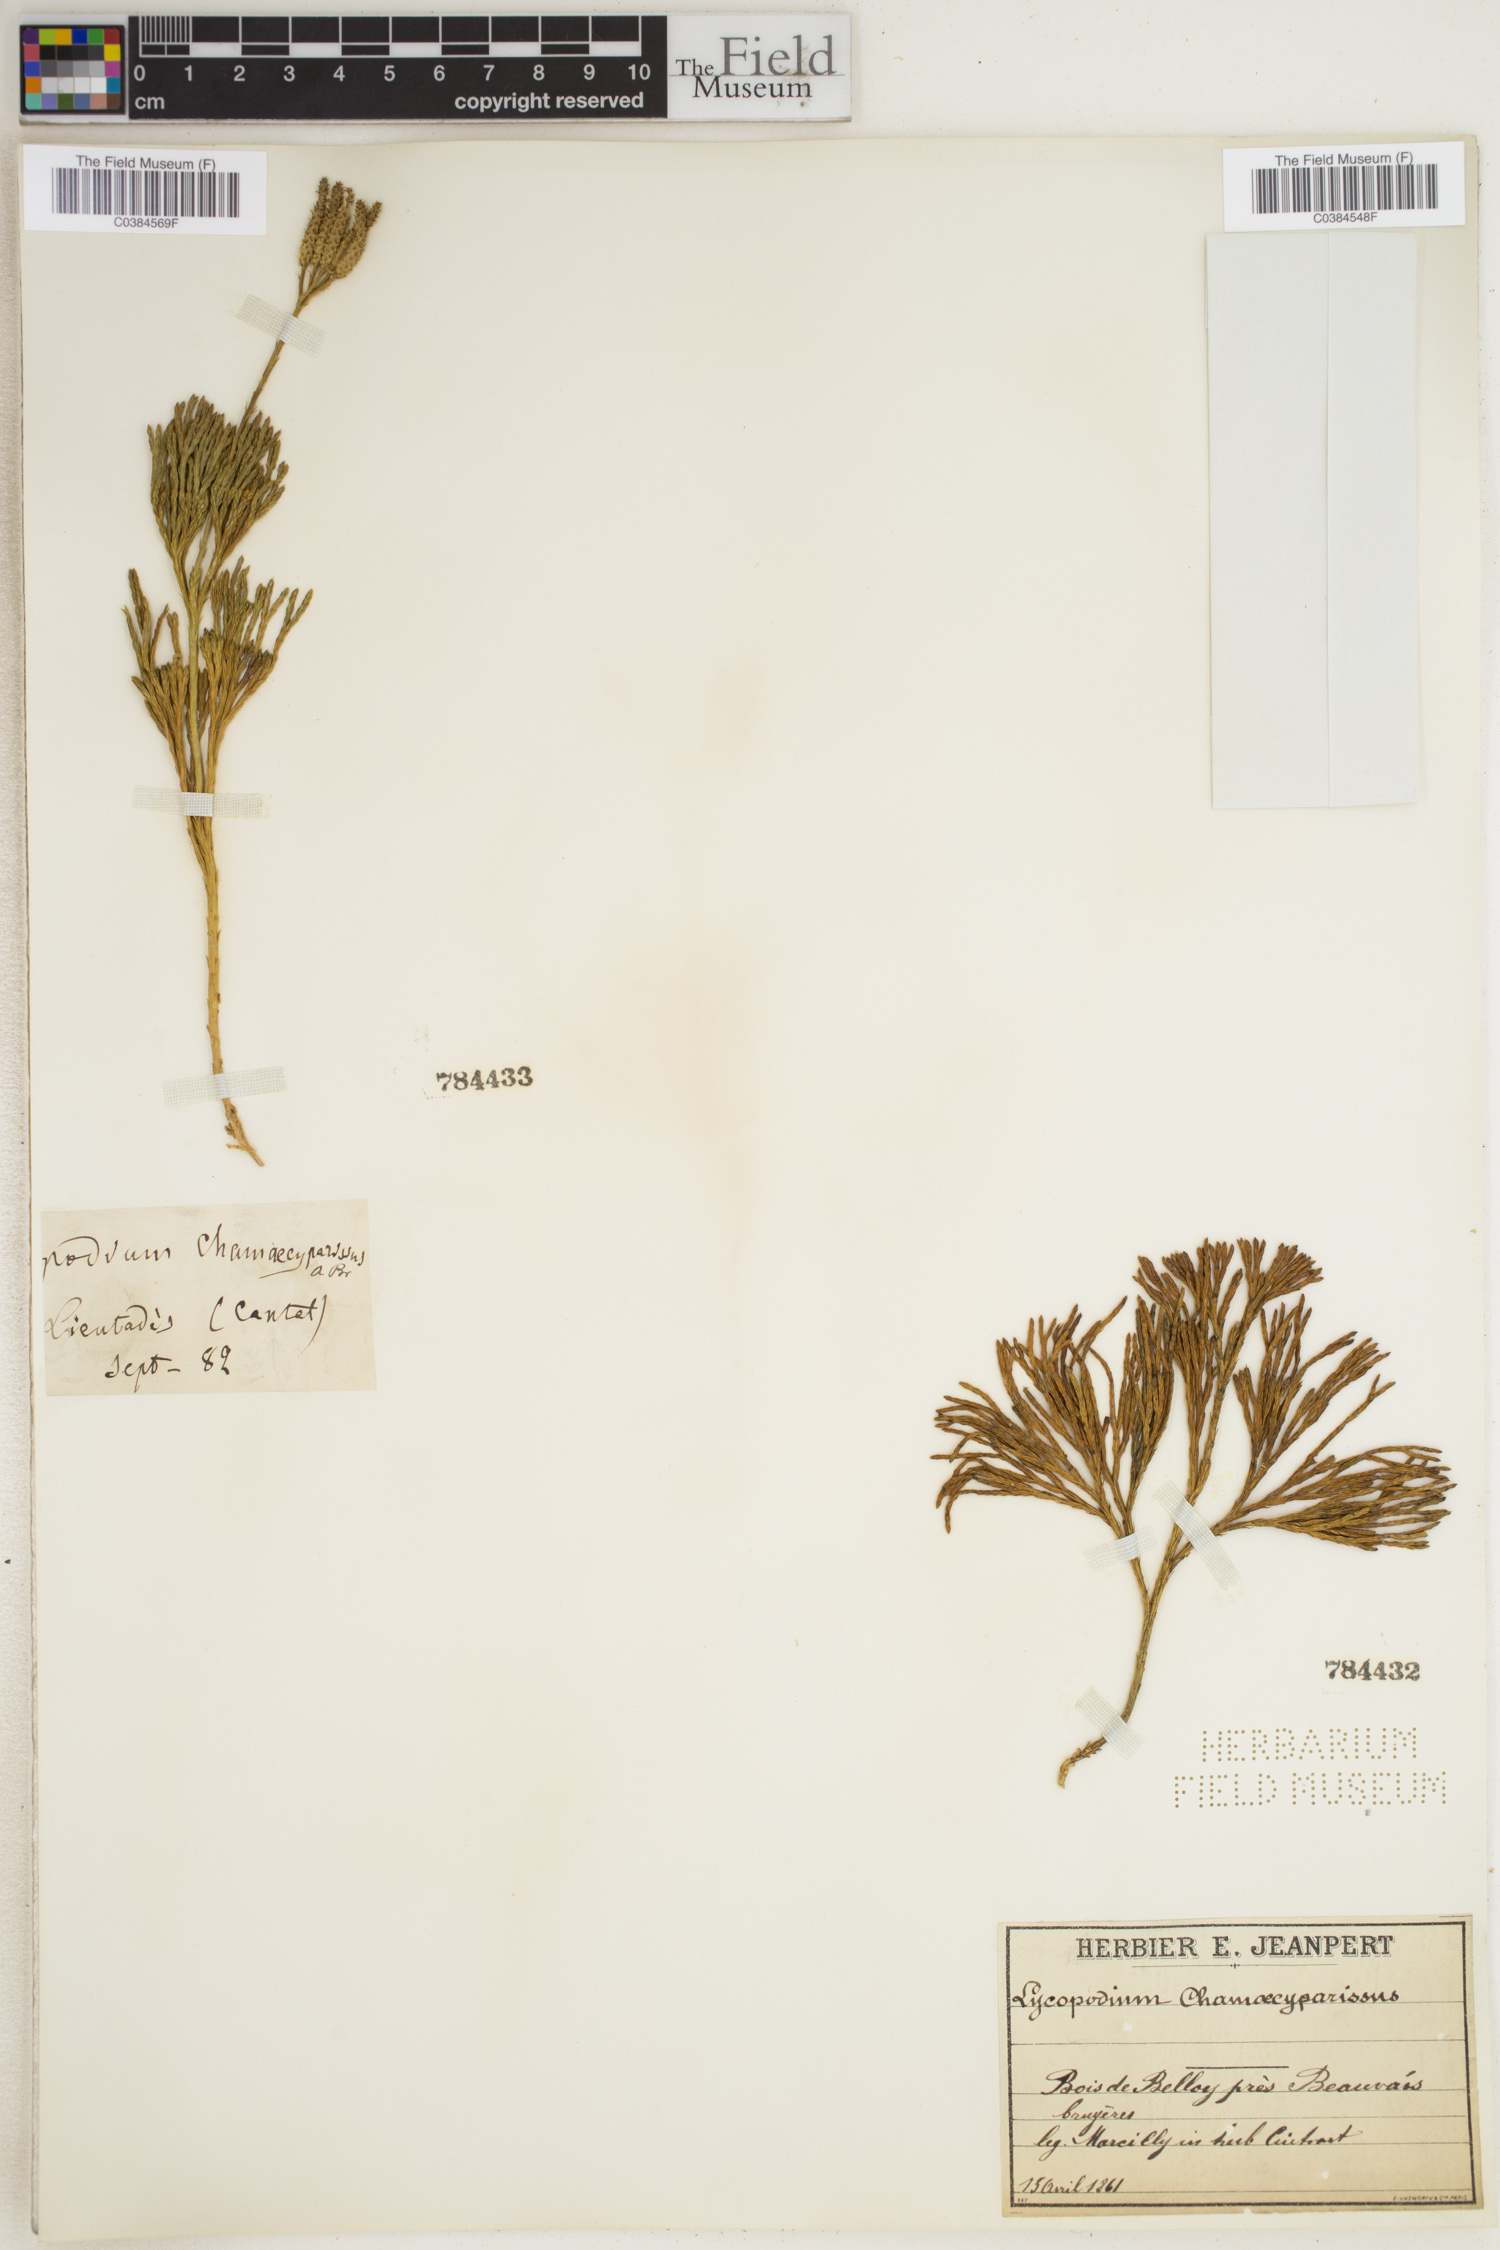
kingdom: Plantae
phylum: Tracheophyta
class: Lycopodiopsida
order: Lycopodiales
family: Lycopodiaceae
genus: Diphasiastrum
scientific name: Diphasiastrum tristachyum
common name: Blue ground-cedar
